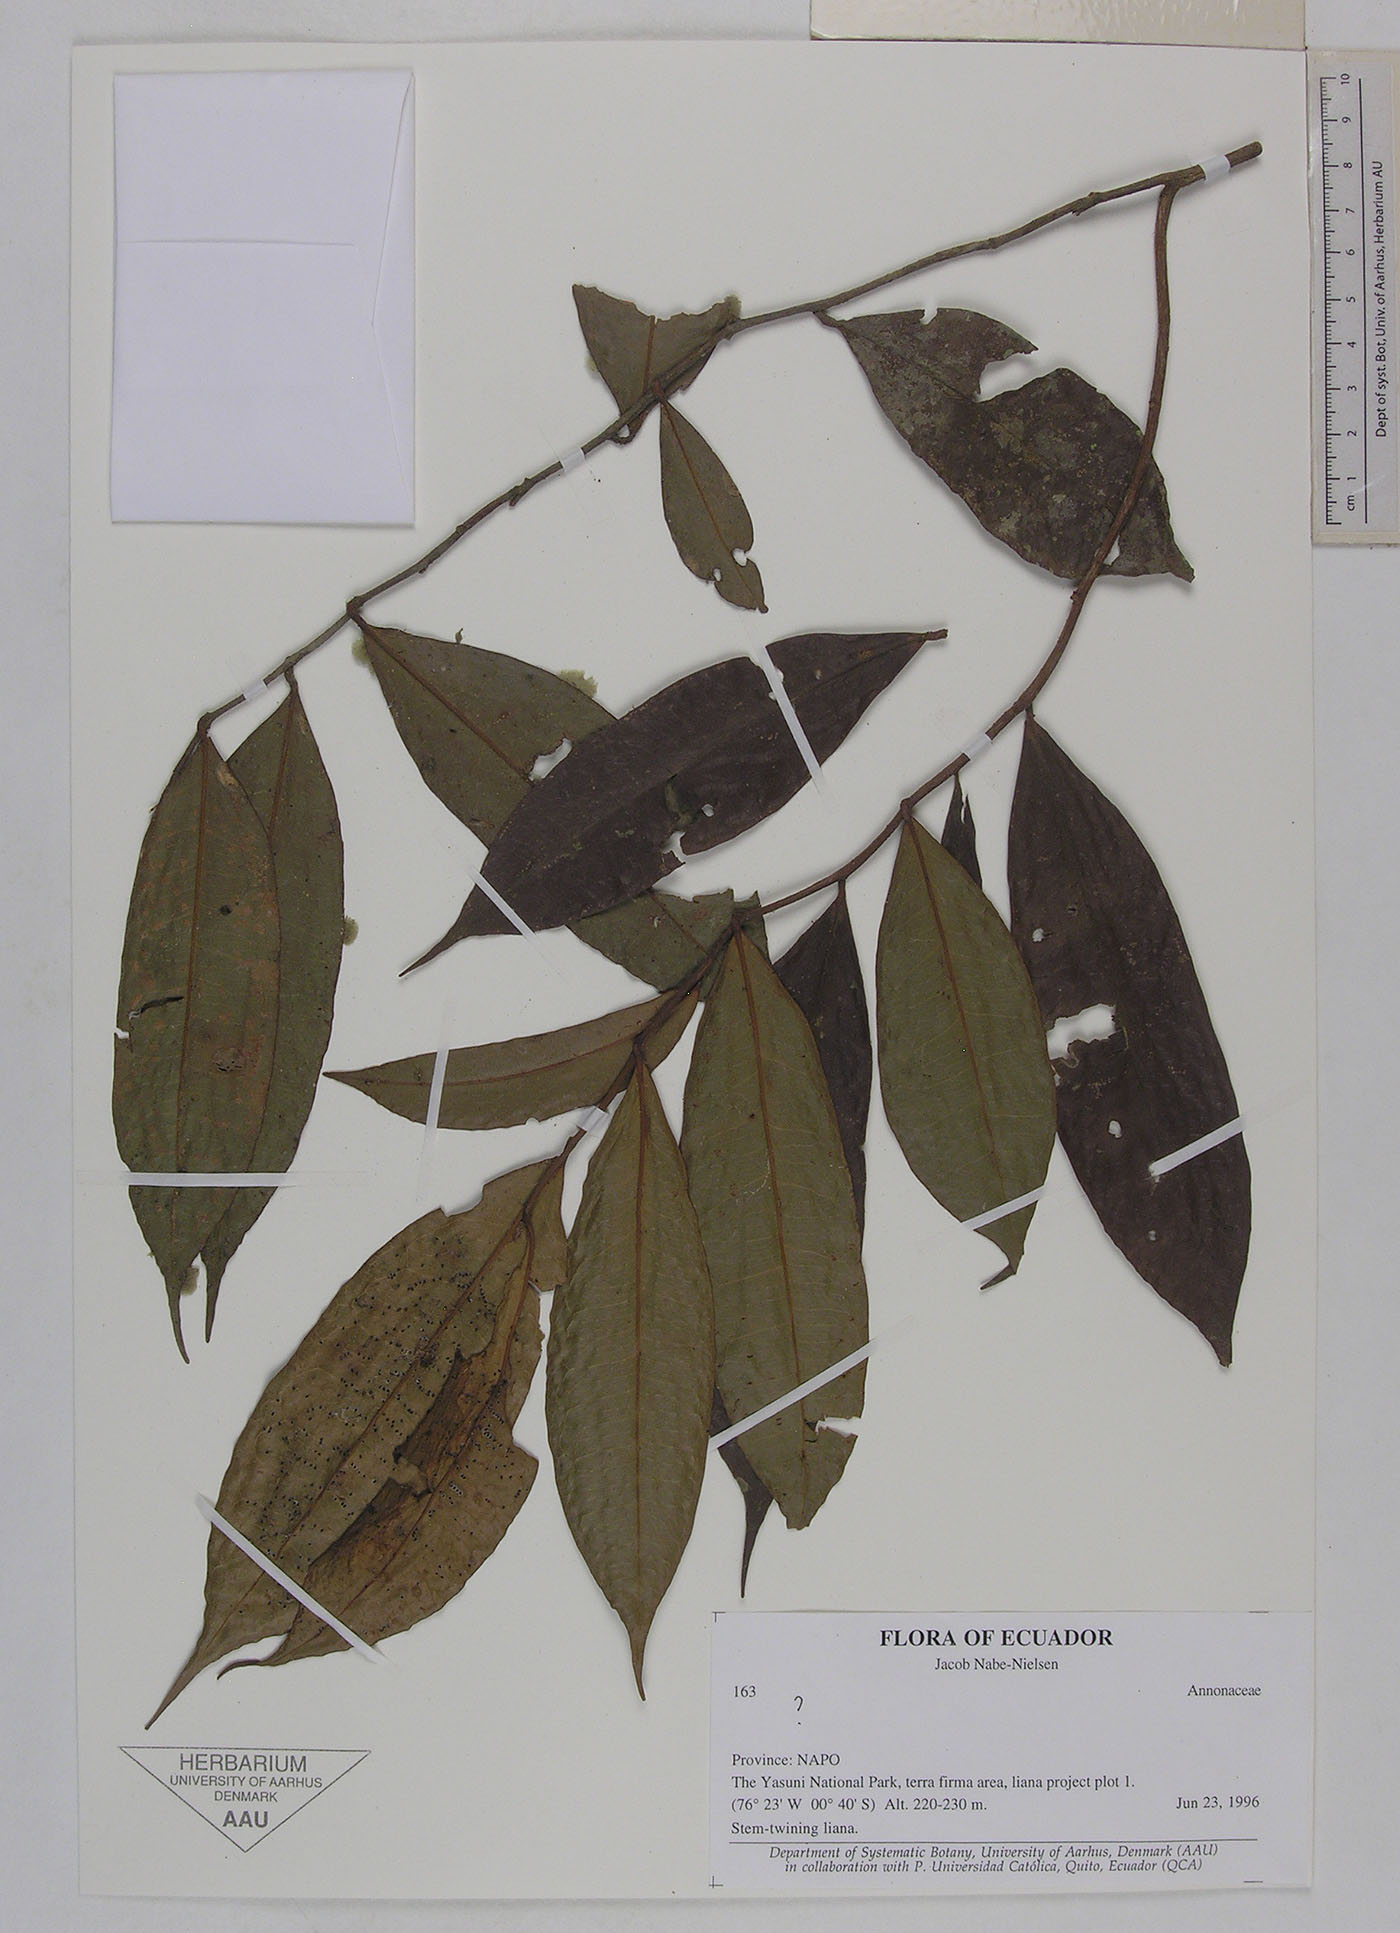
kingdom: Plantae
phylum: Tracheophyta
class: Magnoliopsida
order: Magnoliales
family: Annonaceae
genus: Guatteria
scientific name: Guatteria duodecima
